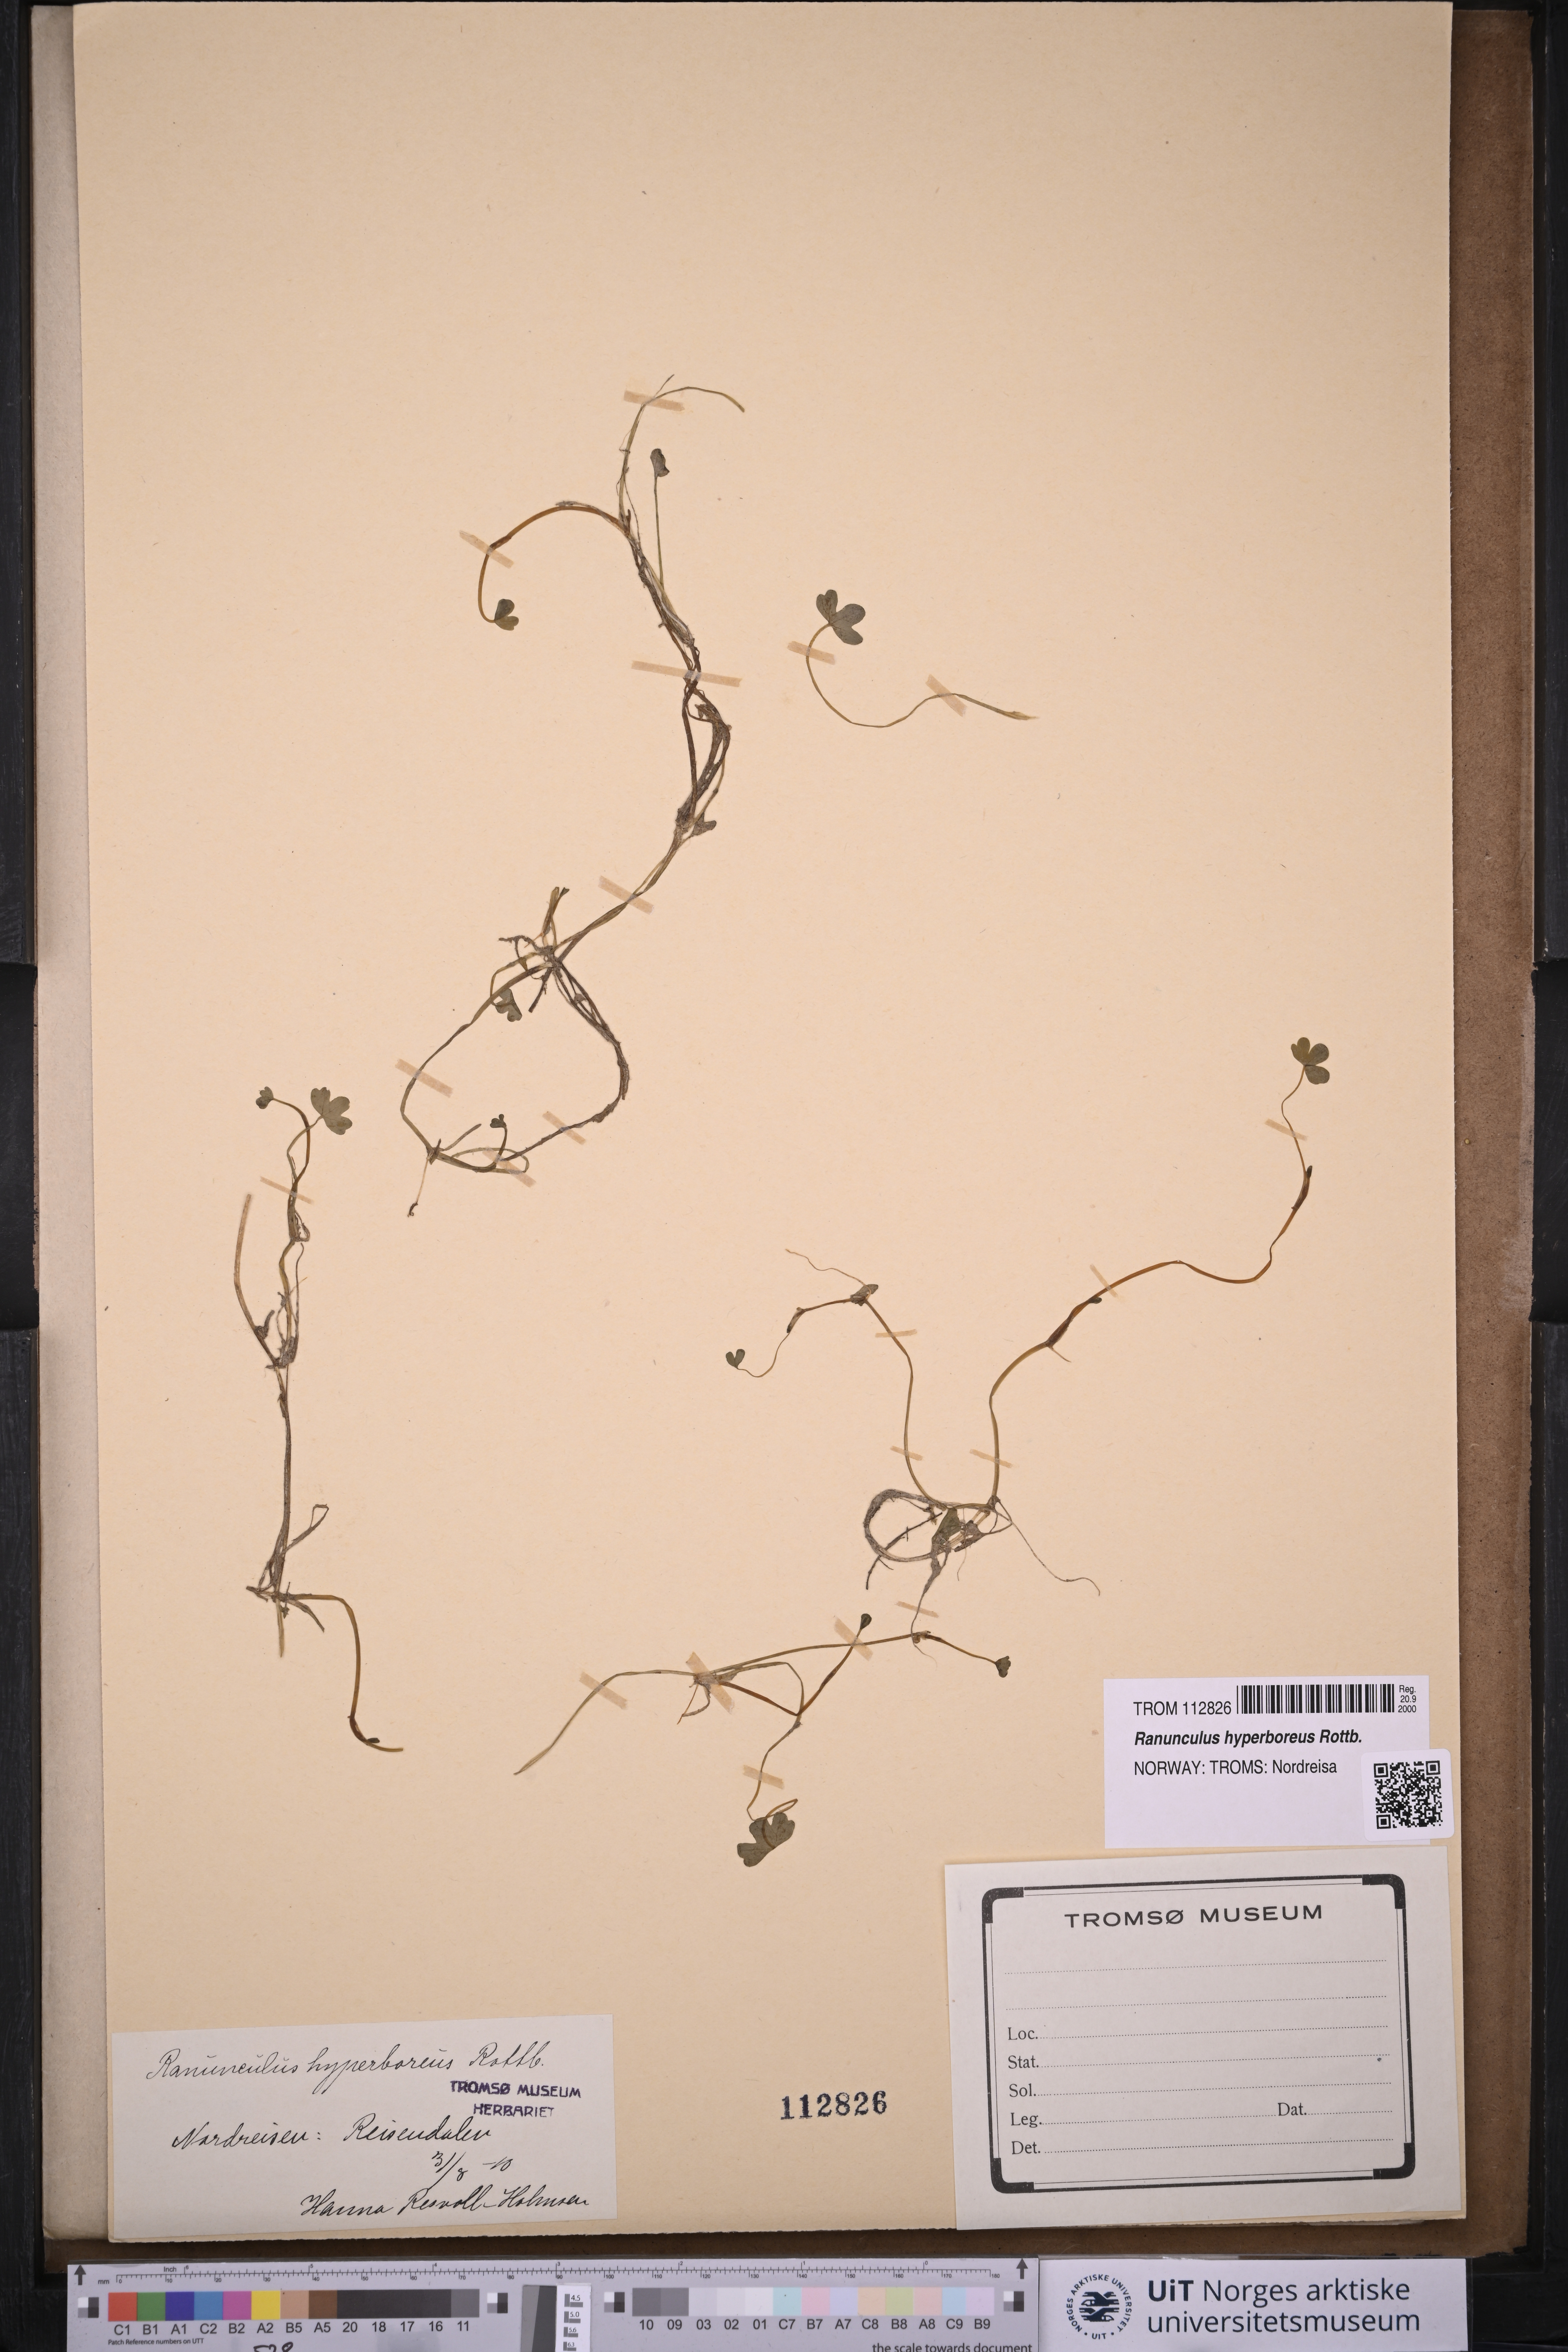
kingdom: Plantae
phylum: Tracheophyta
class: Magnoliopsida
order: Ranunculales
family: Ranunculaceae
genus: Ranunculus
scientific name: Ranunculus hyperboreus
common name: Arctic buttercup
